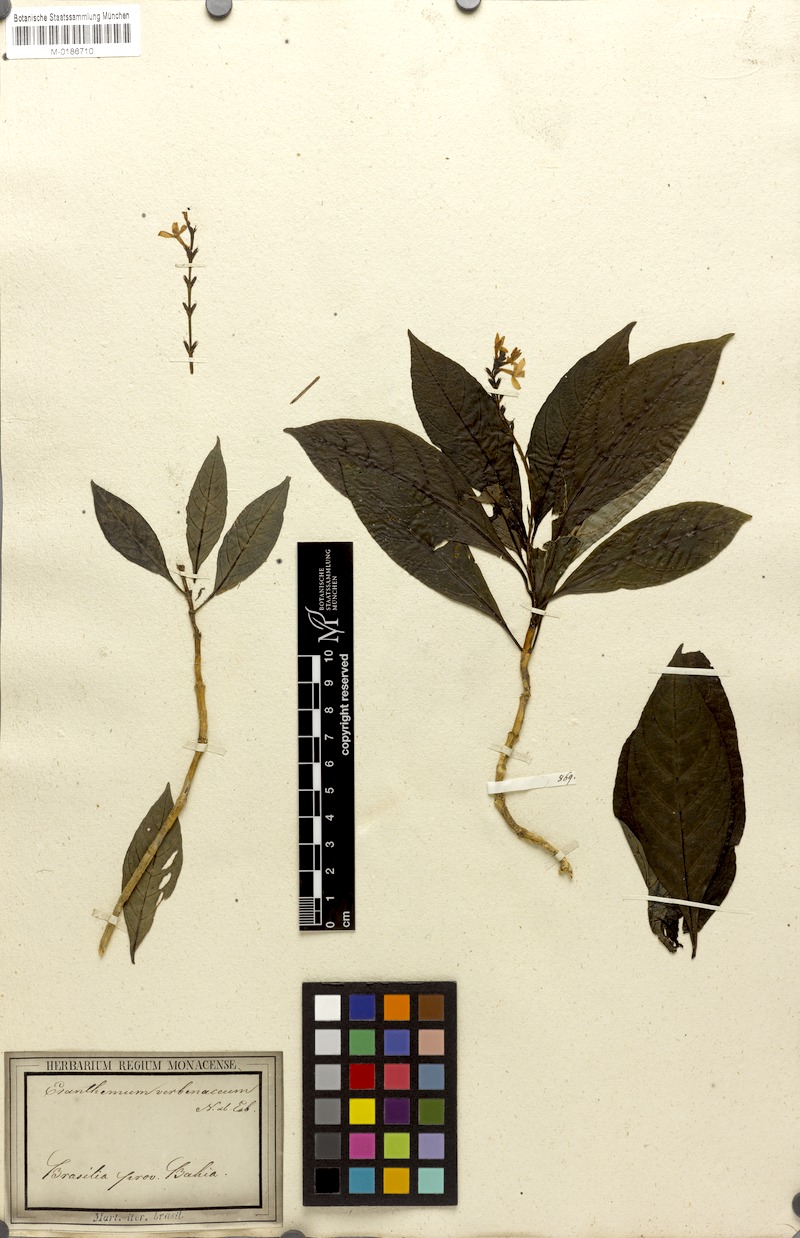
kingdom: Plantae
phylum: Tracheophyta
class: Magnoliopsida
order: Lamiales
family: Acanthaceae
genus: Pseuderanthemum
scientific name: Pseuderanthemum verbenaceum
